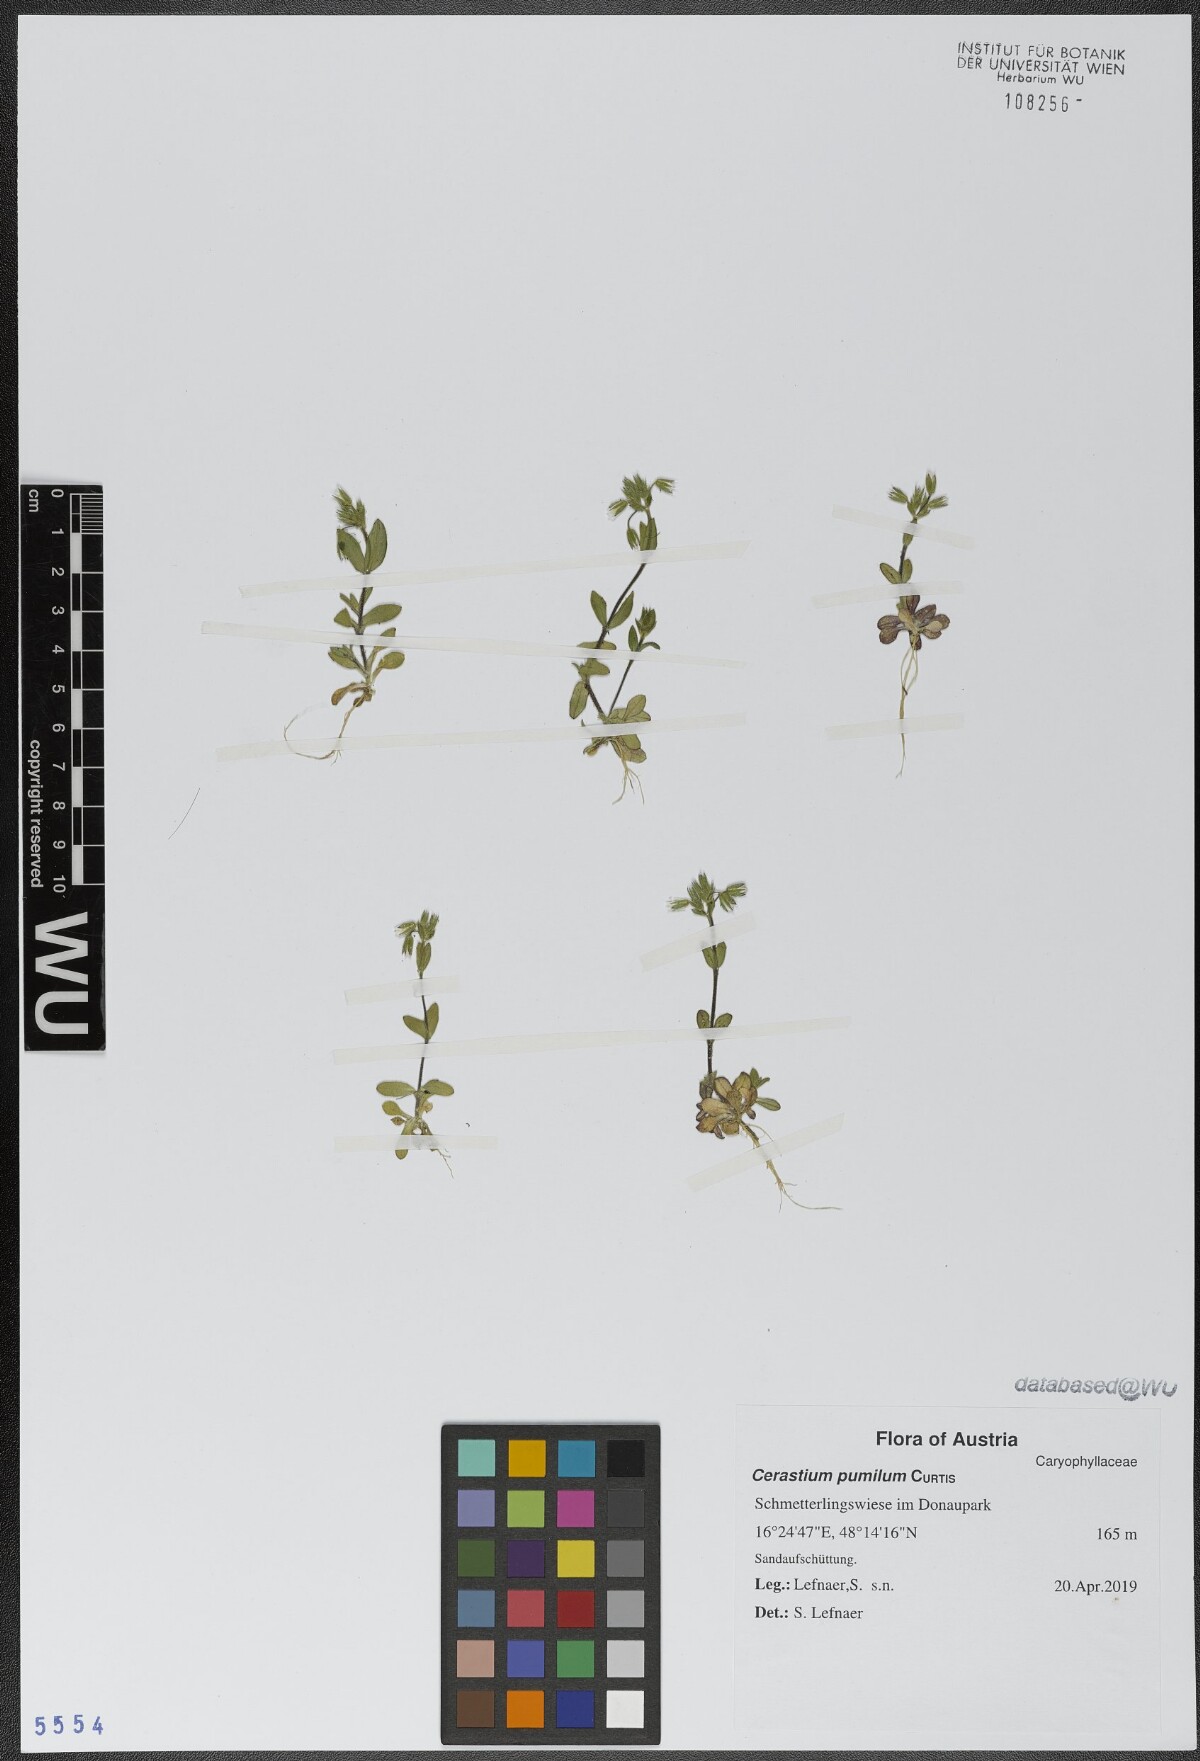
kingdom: Plantae
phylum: Tracheophyta
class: Magnoliopsida
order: Caryophyllales
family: Caryophyllaceae
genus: Cerastium
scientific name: Cerastium pumilum
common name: Dwarf mouse-ear
